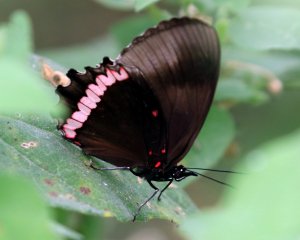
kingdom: Animalia
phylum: Arthropoda
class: Insecta
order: Lepidoptera
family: Sesiidae
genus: Sesia
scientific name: Sesia Biblis hyperia
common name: Red Rim
